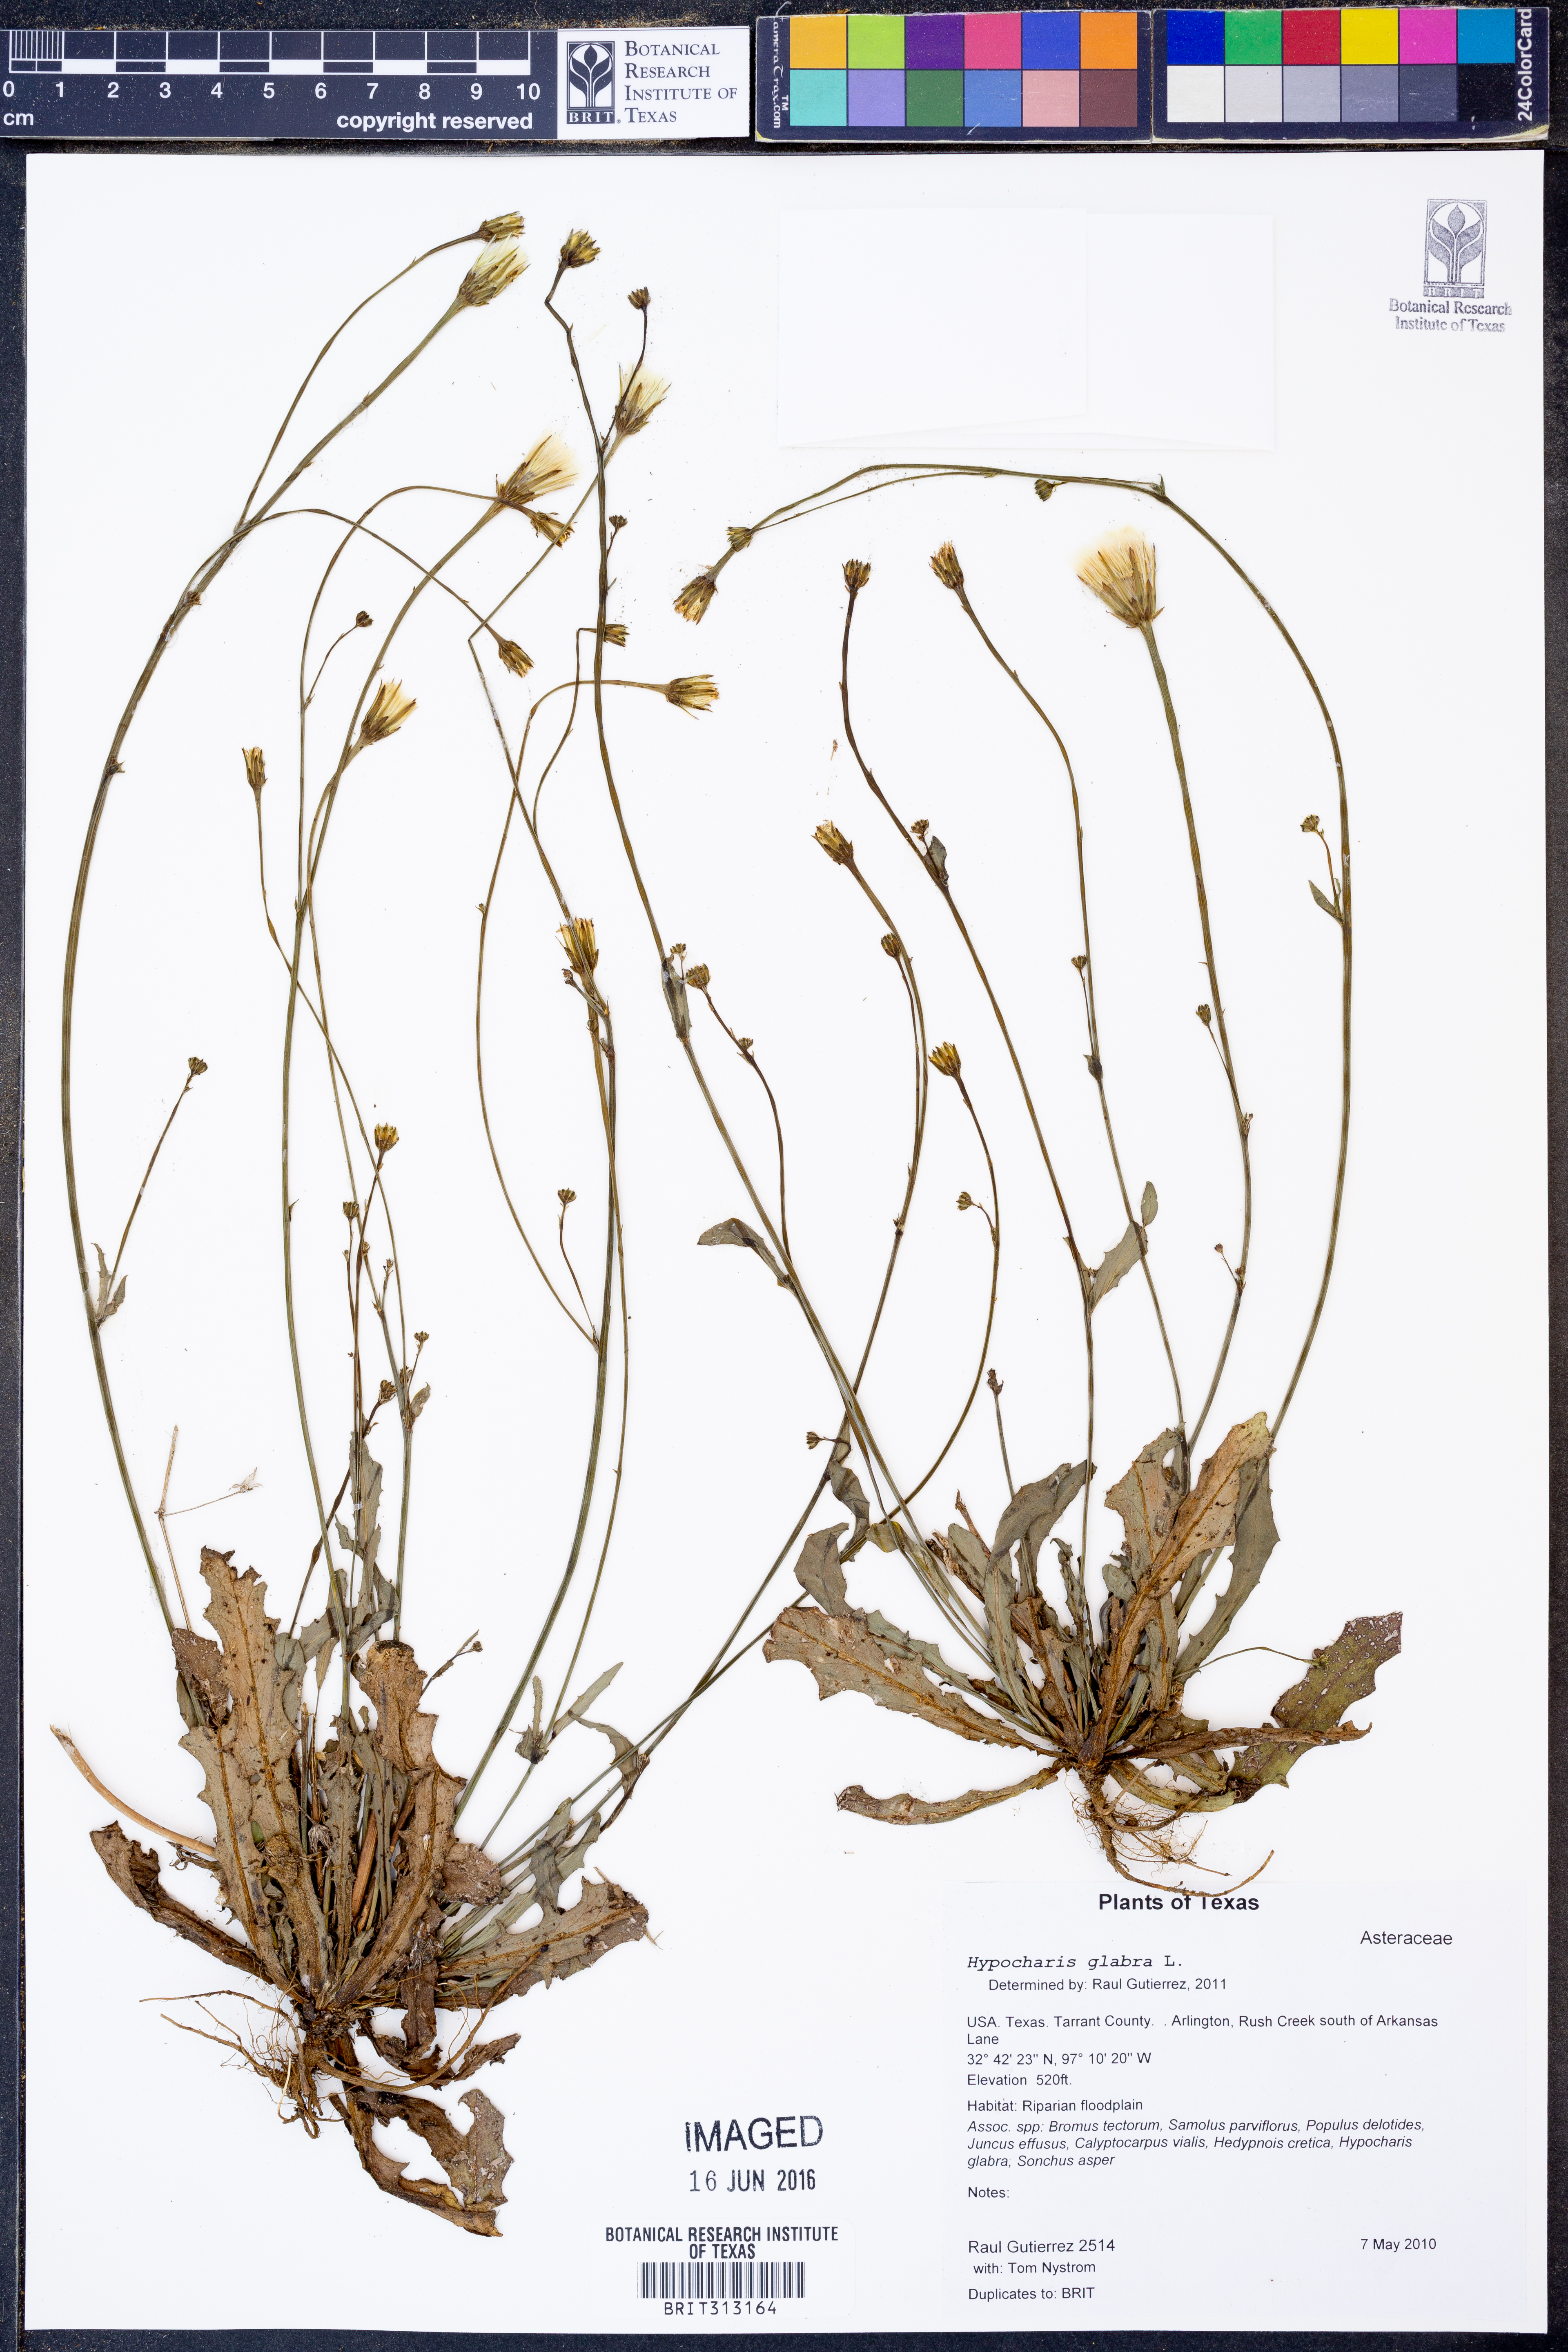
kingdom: Plantae
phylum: Tracheophyta
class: Magnoliopsida
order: Asterales
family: Asteraceae
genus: Hypochaeris
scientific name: Hypochaeris glabra
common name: Smooth catsear
